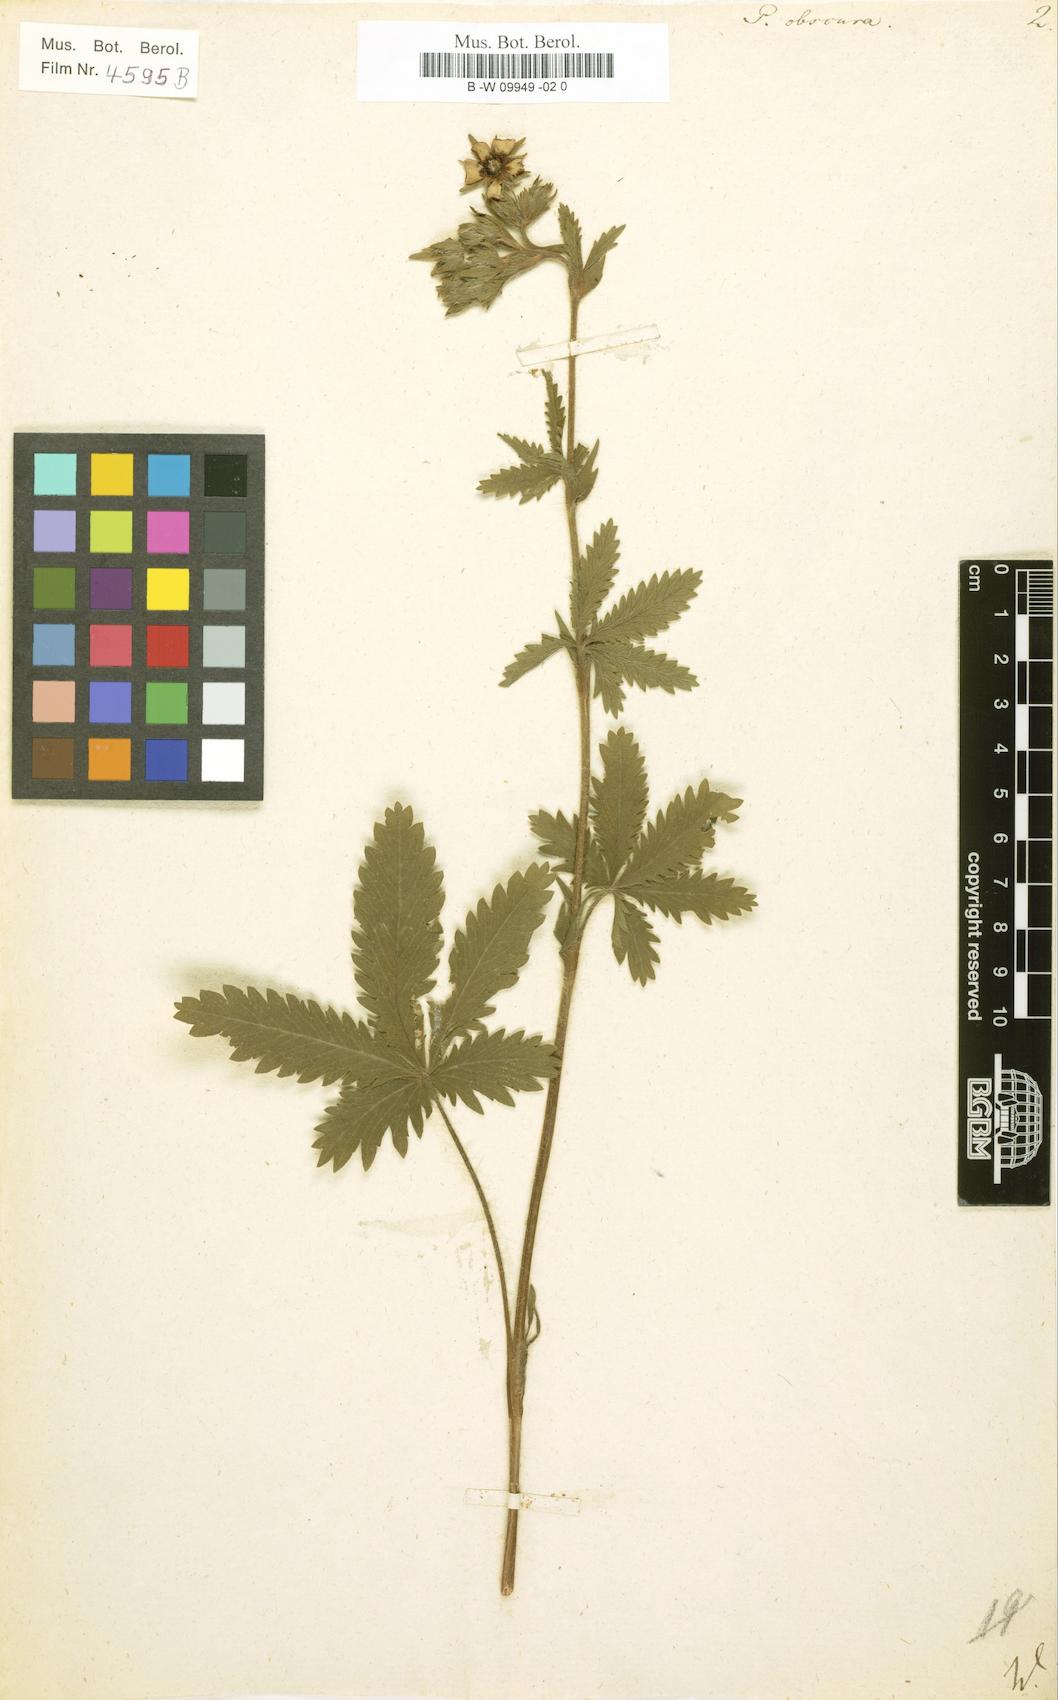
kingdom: Plantae
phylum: Tracheophyta
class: Magnoliopsida
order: Rosales
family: Rosaceae
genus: Potentilla
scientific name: Potentilla recta
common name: Sulphur cinquefoil
